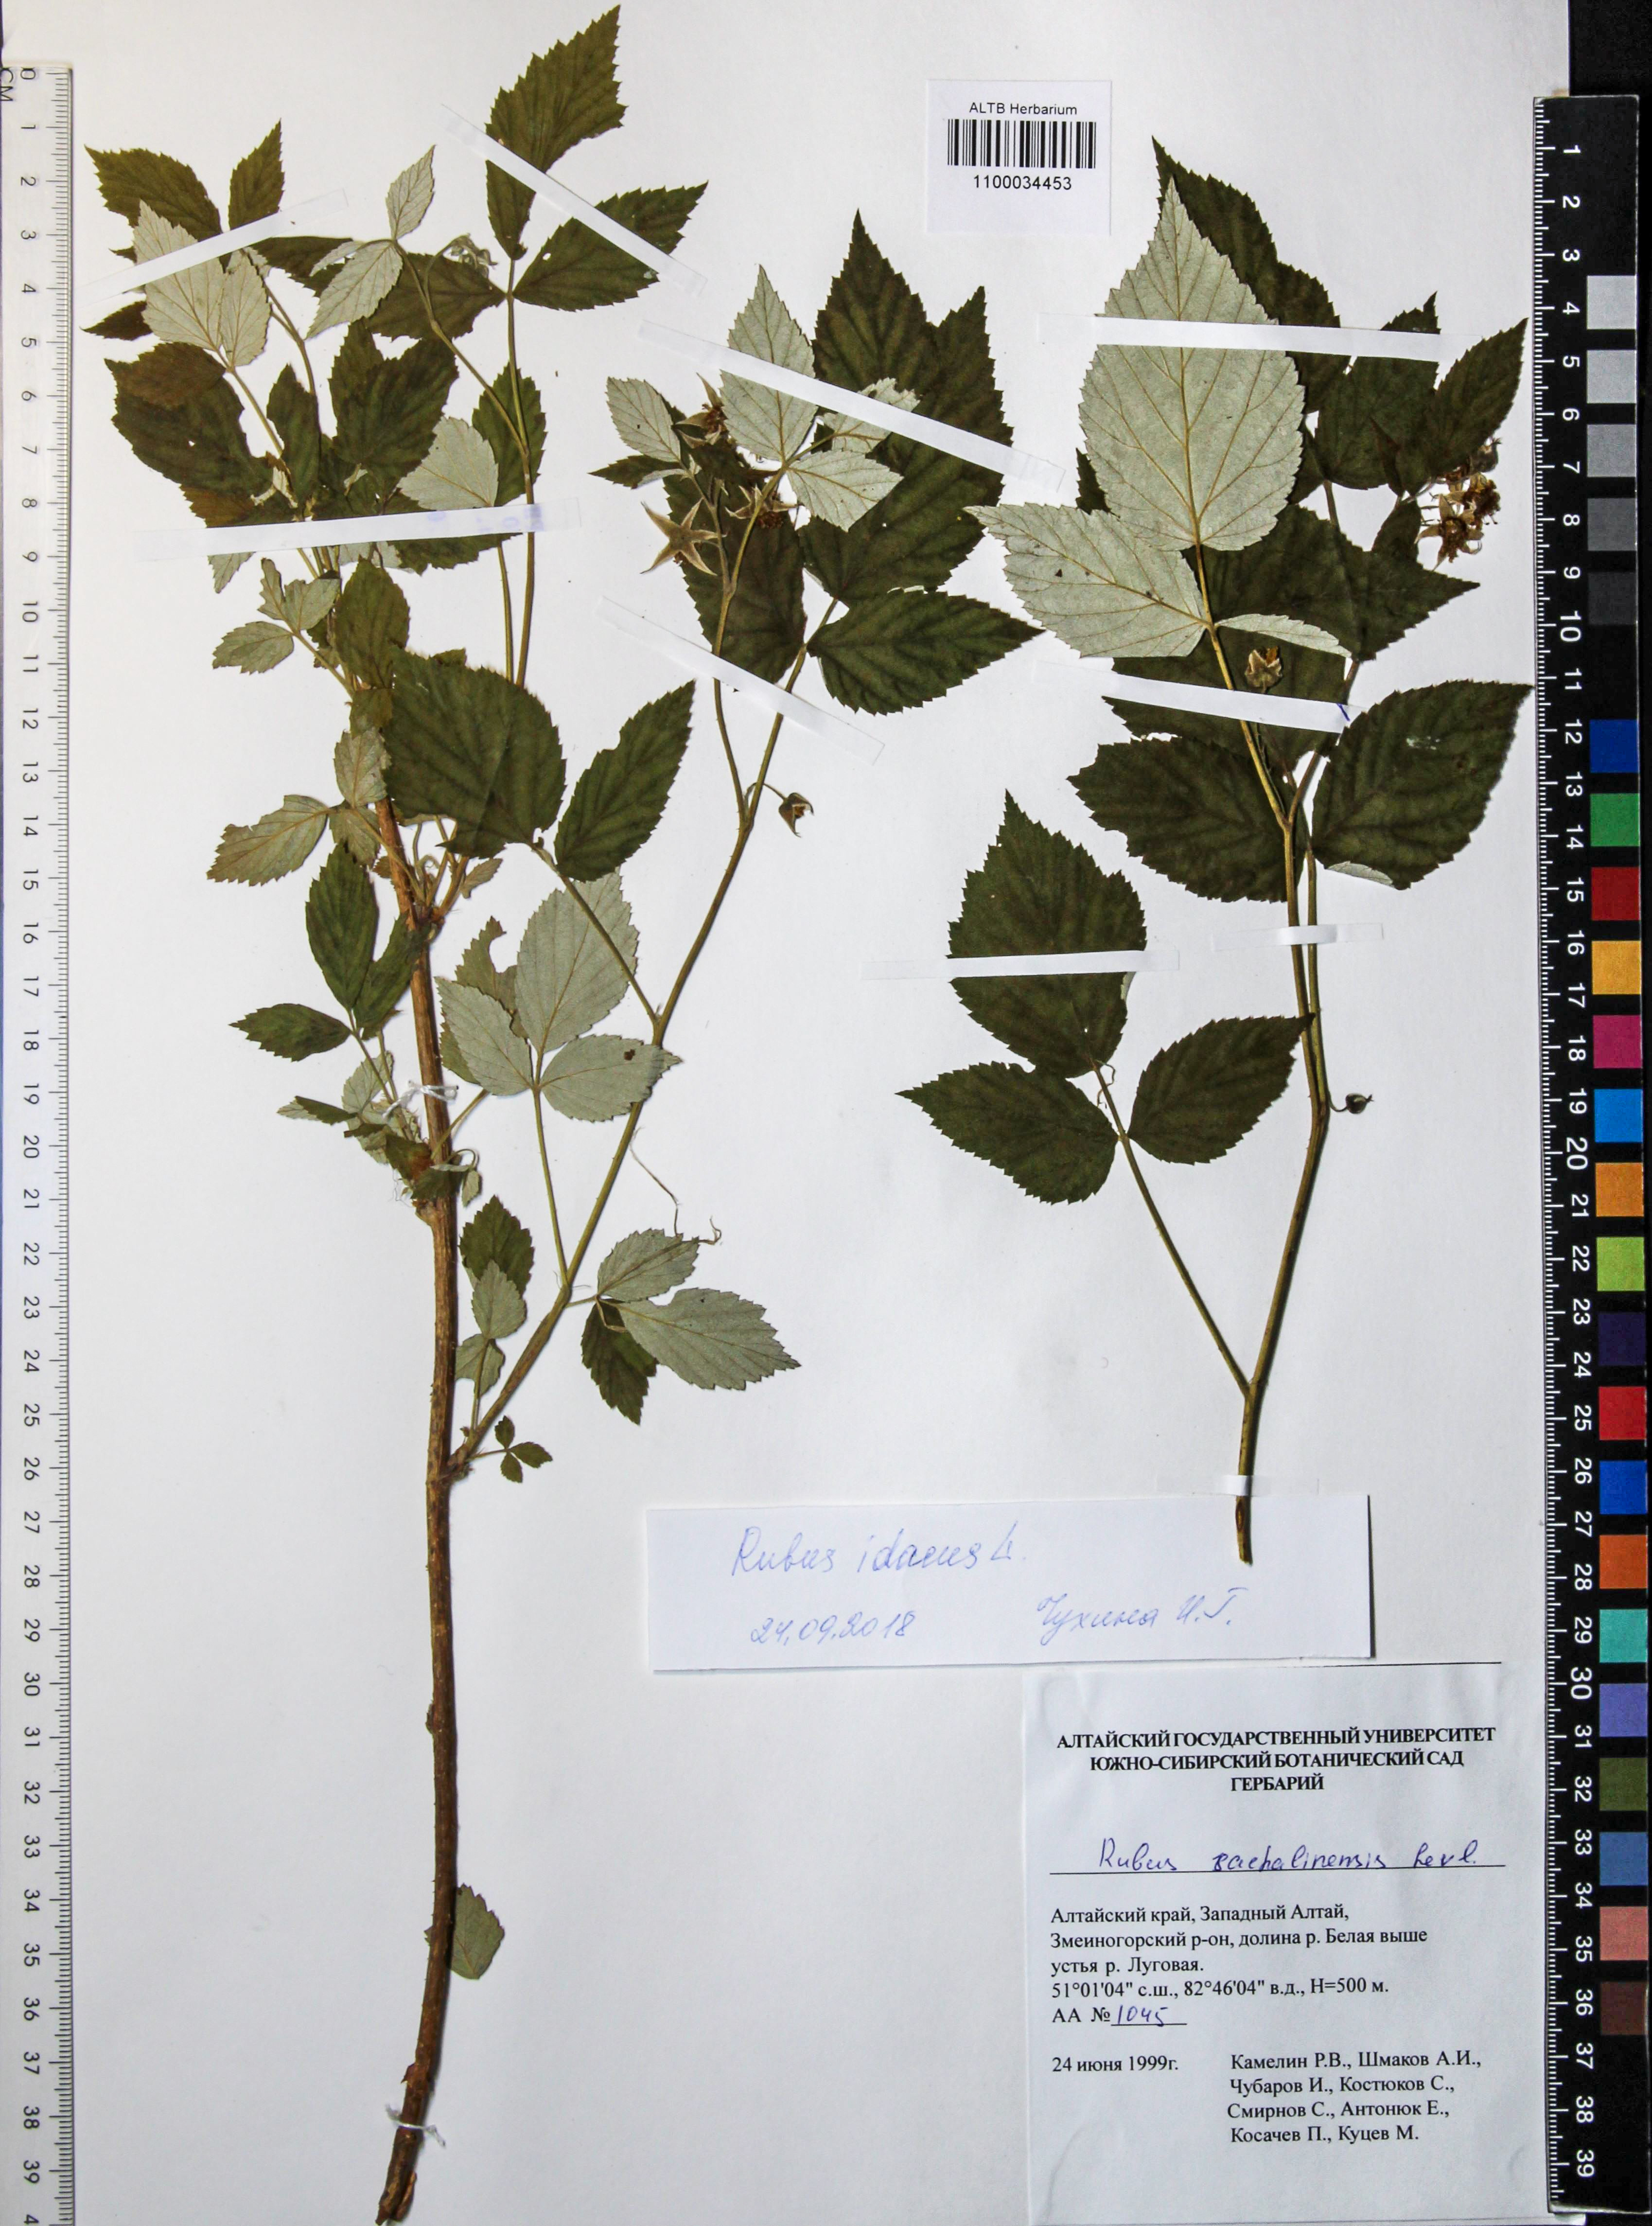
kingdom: Plantae
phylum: Tracheophyta
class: Magnoliopsida
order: Rosales
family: Rosaceae
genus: Rubus
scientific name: Rubus idaeus
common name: Raspberry
